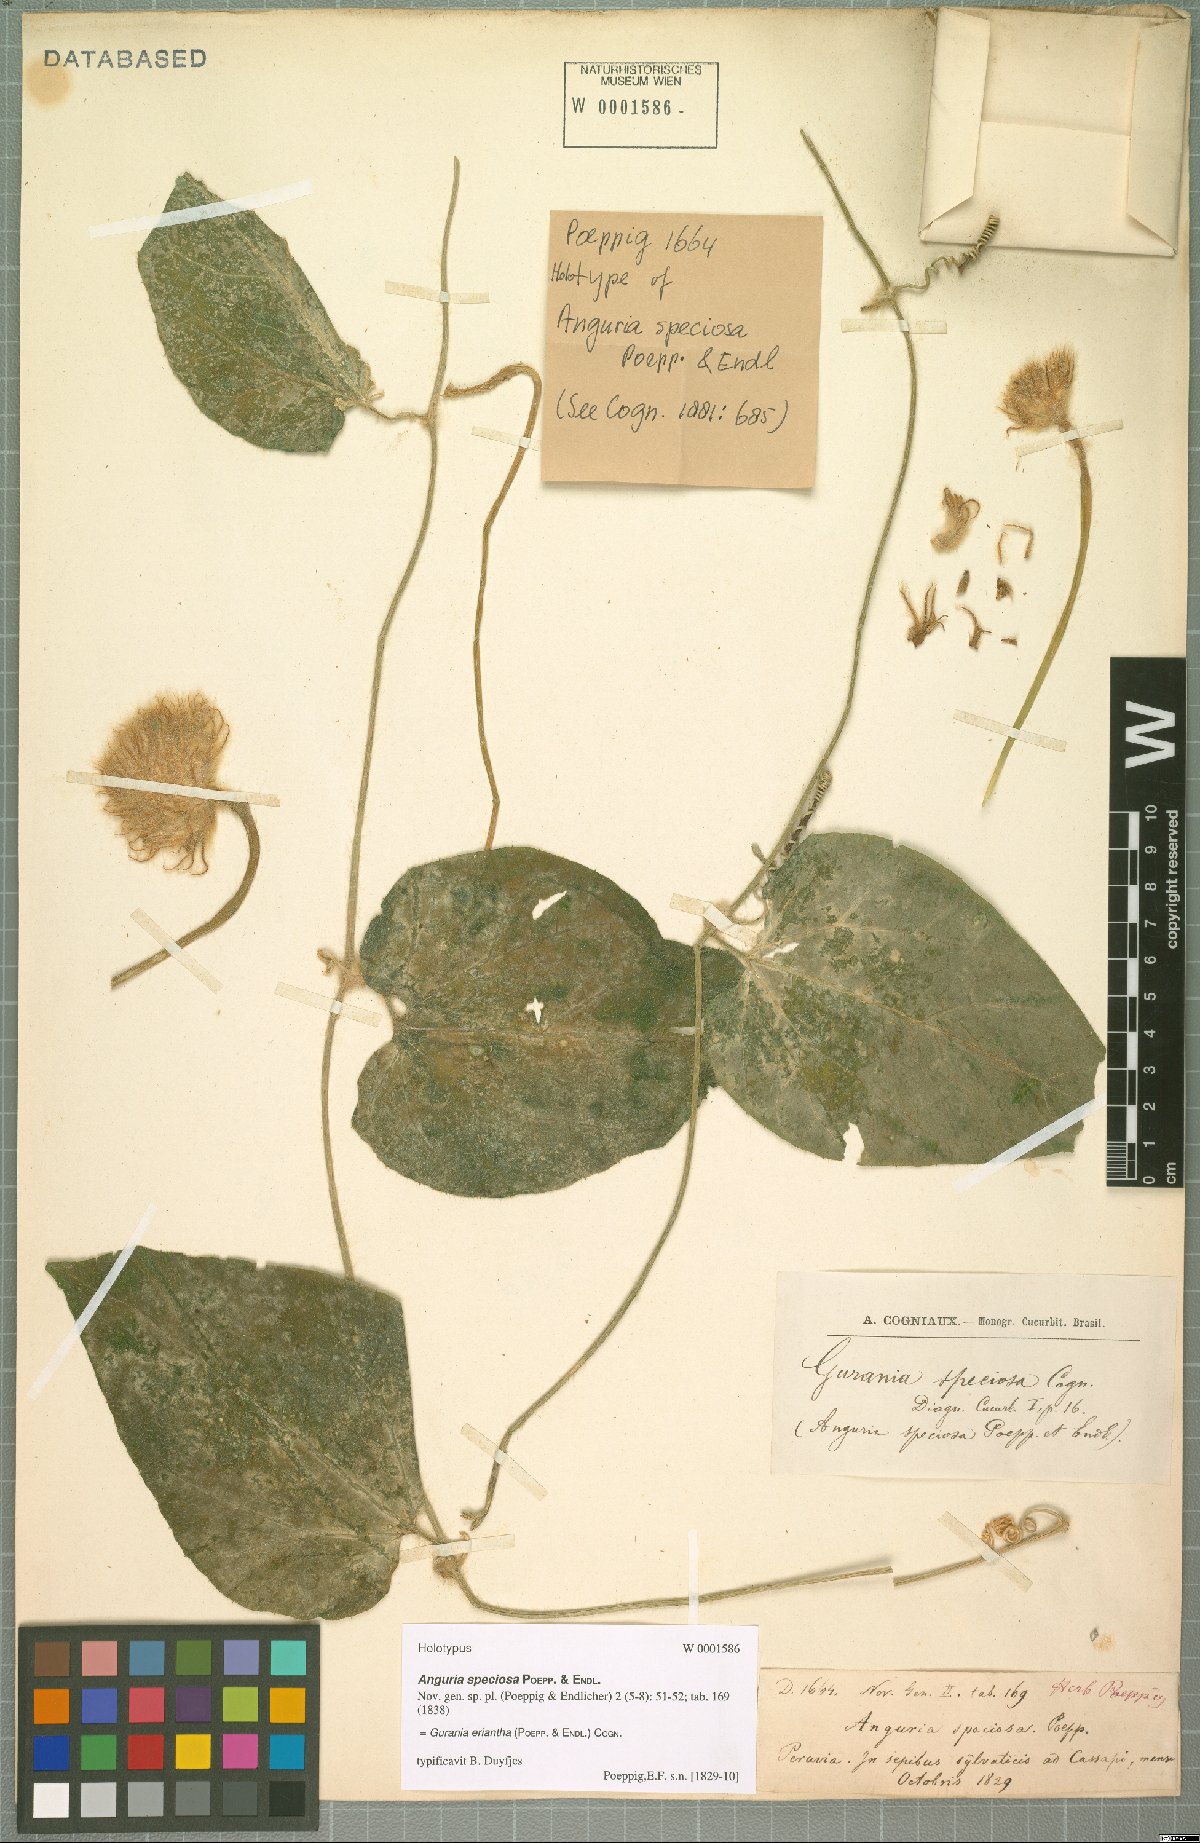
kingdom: Plantae
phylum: Tracheophyta
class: Magnoliopsida
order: Cucurbitales
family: Cucurbitaceae
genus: Gurania
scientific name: Gurania eriantha
